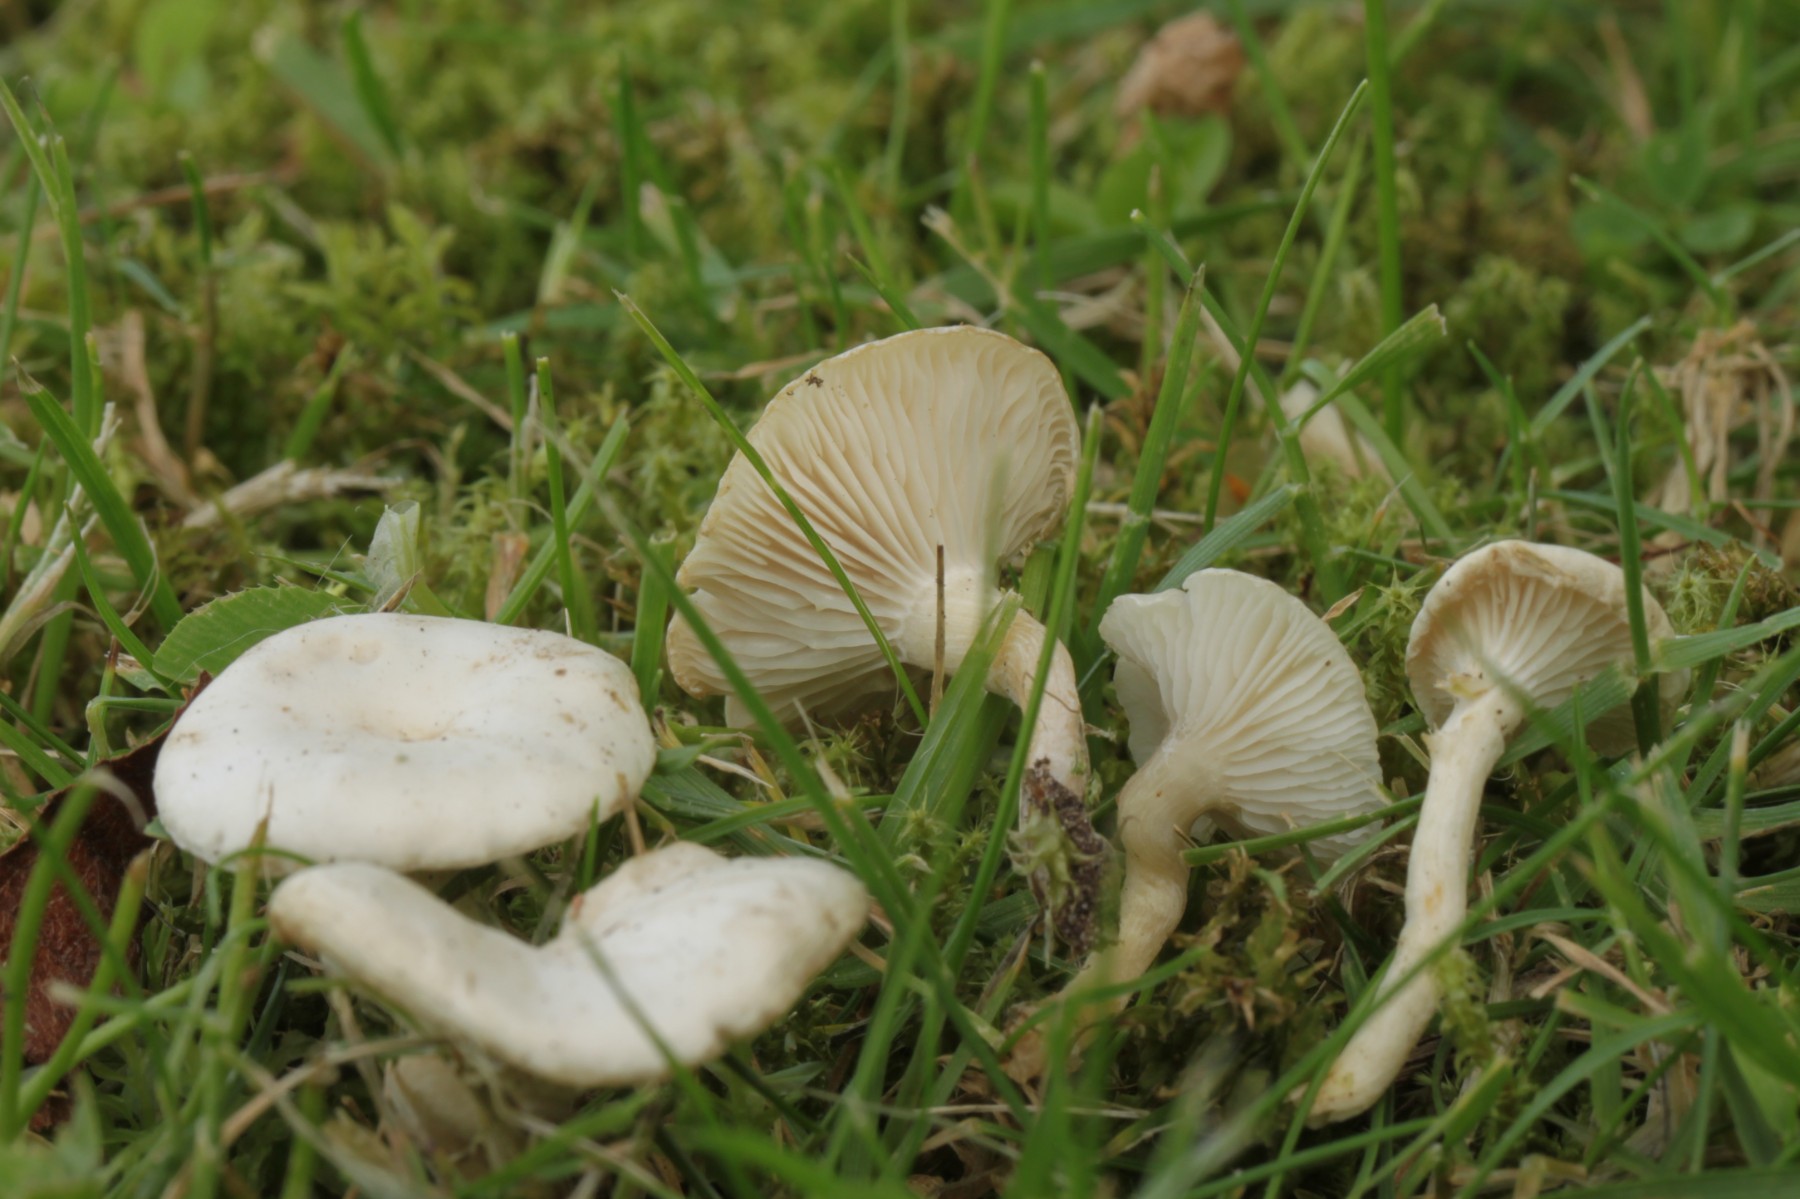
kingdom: Fungi
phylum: Basidiomycota
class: Agaricomycetes
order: Agaricales
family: Tricholomataceae
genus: Clitocybe
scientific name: Clitocybe
